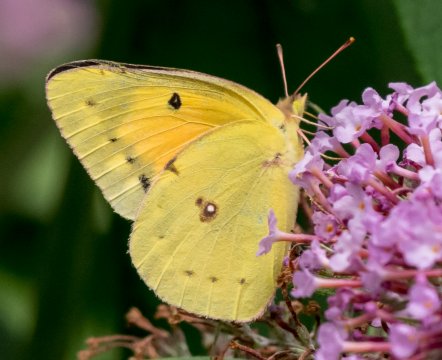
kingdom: Animalia
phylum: Arthropoda
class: Insecta
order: Lepidoptera
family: Pieridae
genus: Colias
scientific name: Colias eurytheme
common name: Orange Sulphur
